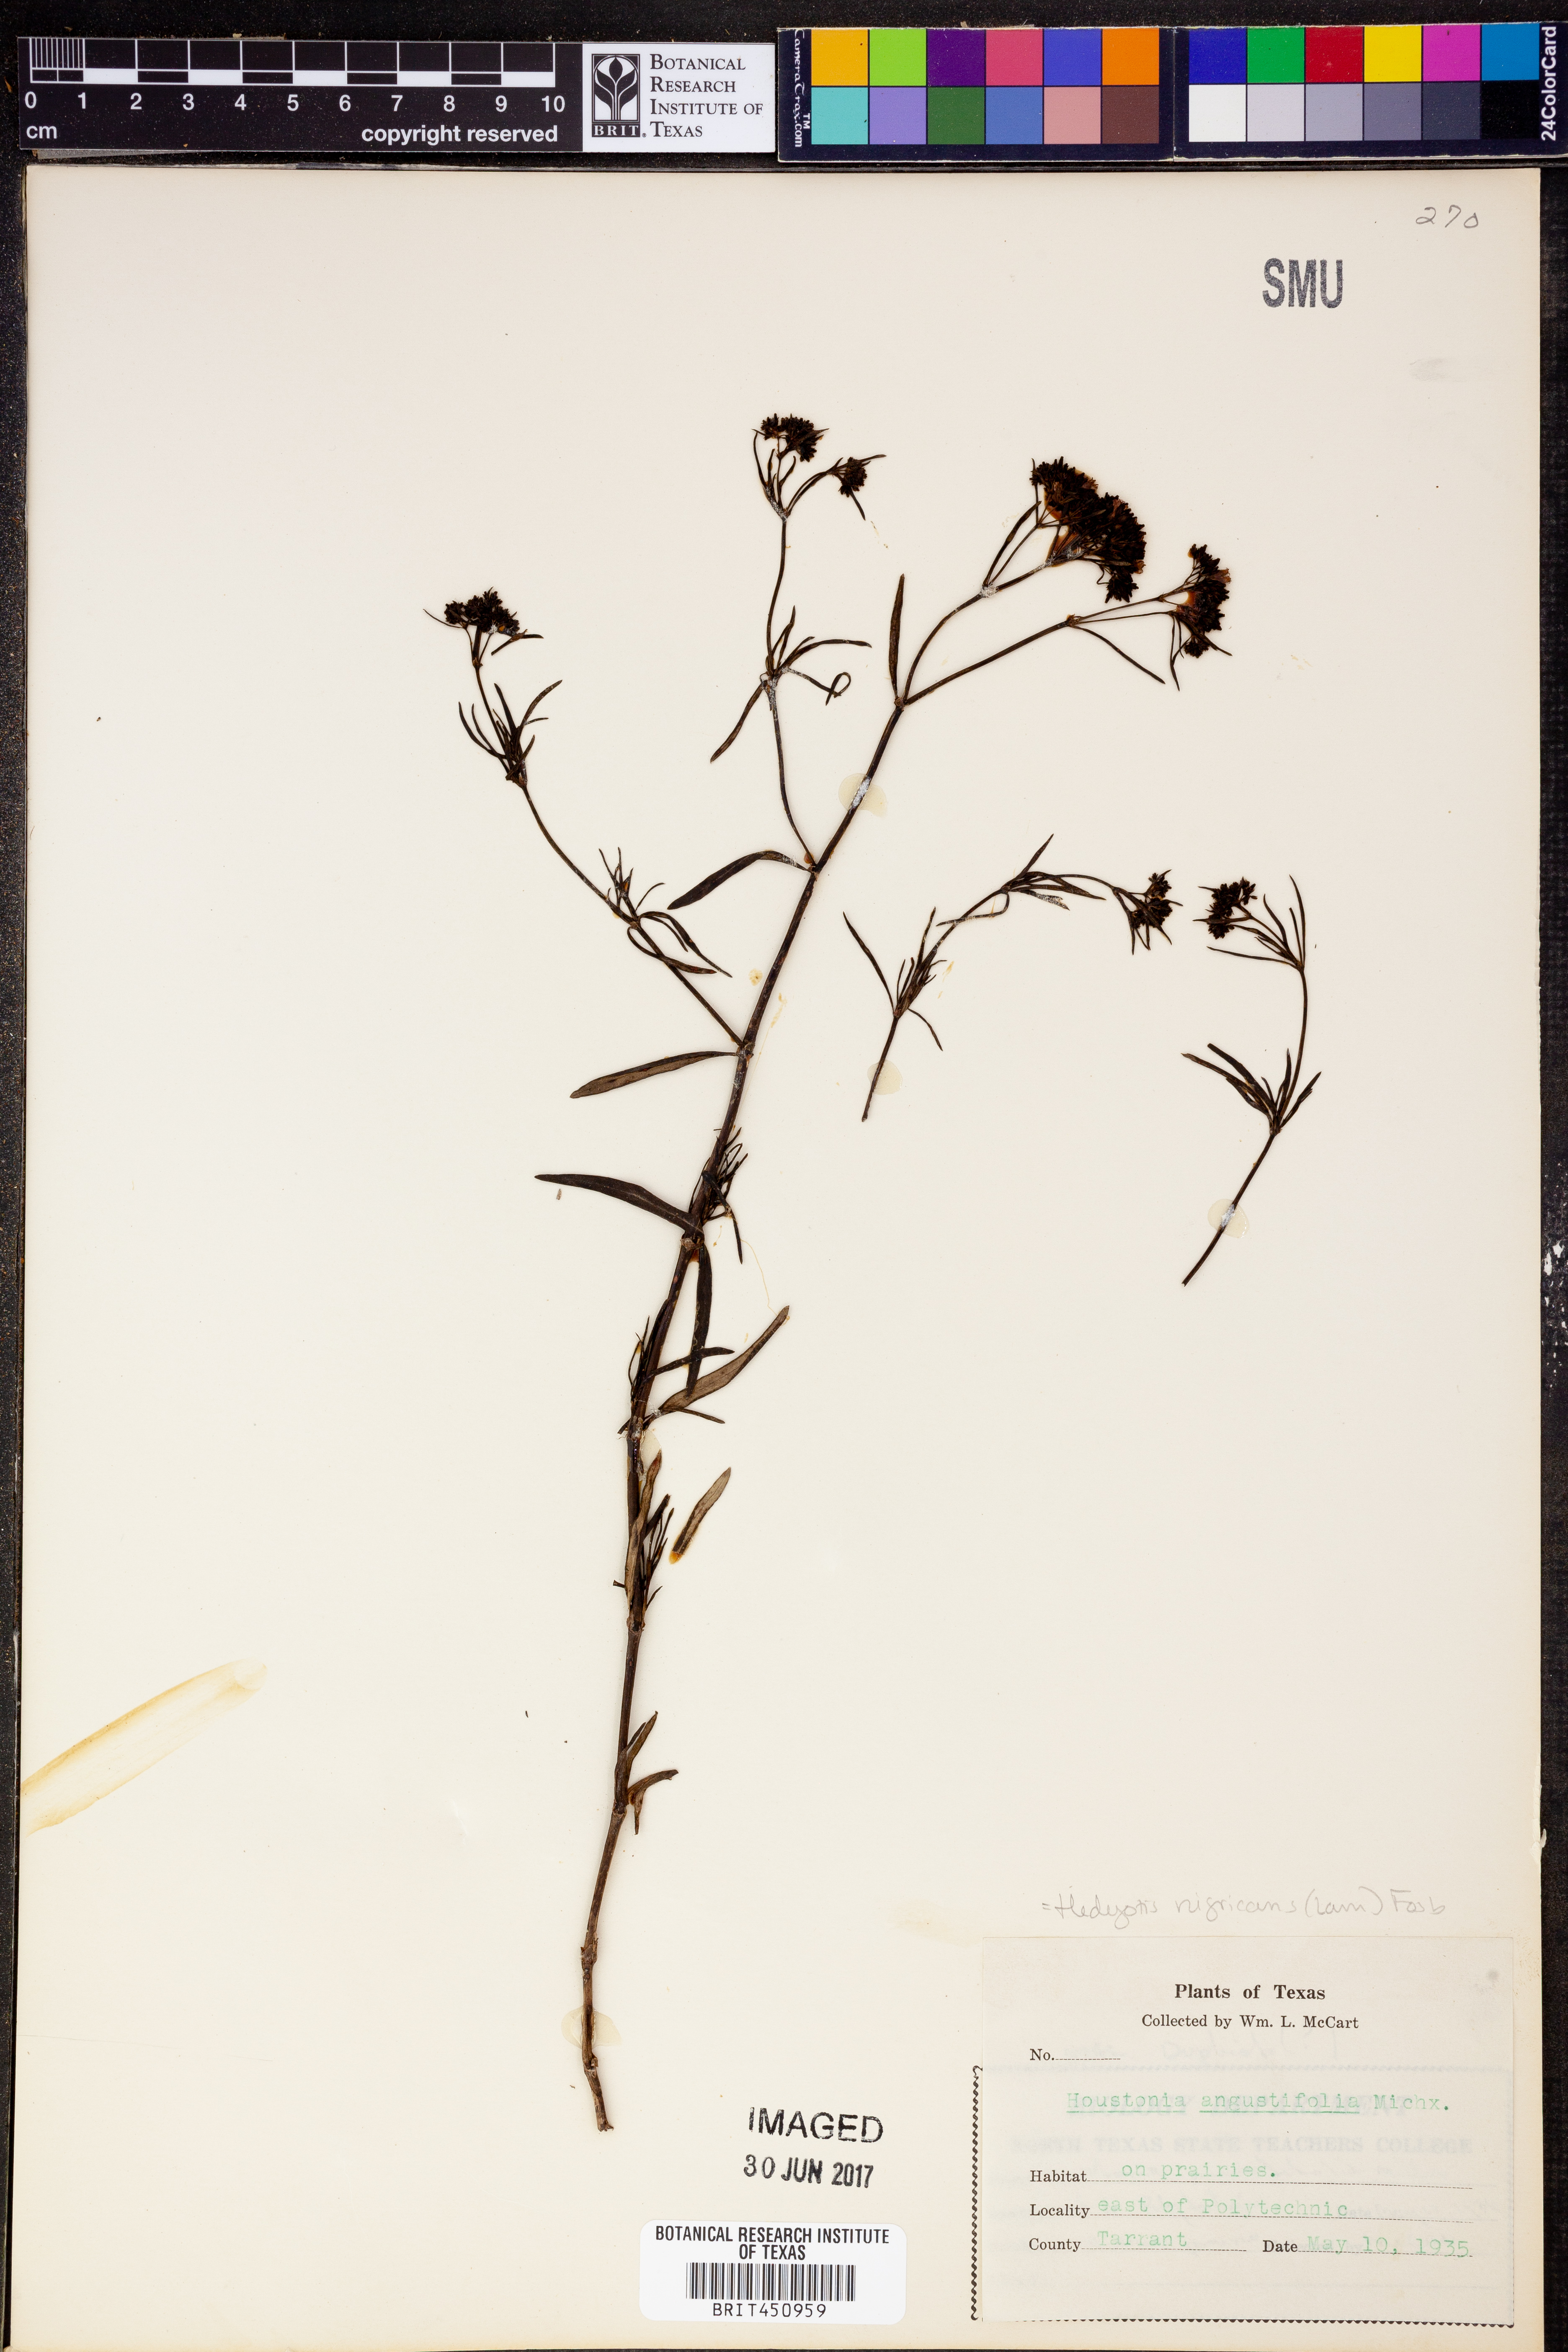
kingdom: Plantae
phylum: Tracheophyta
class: Magnoliopsida
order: Gentianales
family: Rubiaceae
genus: Stenaria
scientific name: Stenaria nigricans
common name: Diamondflowers
